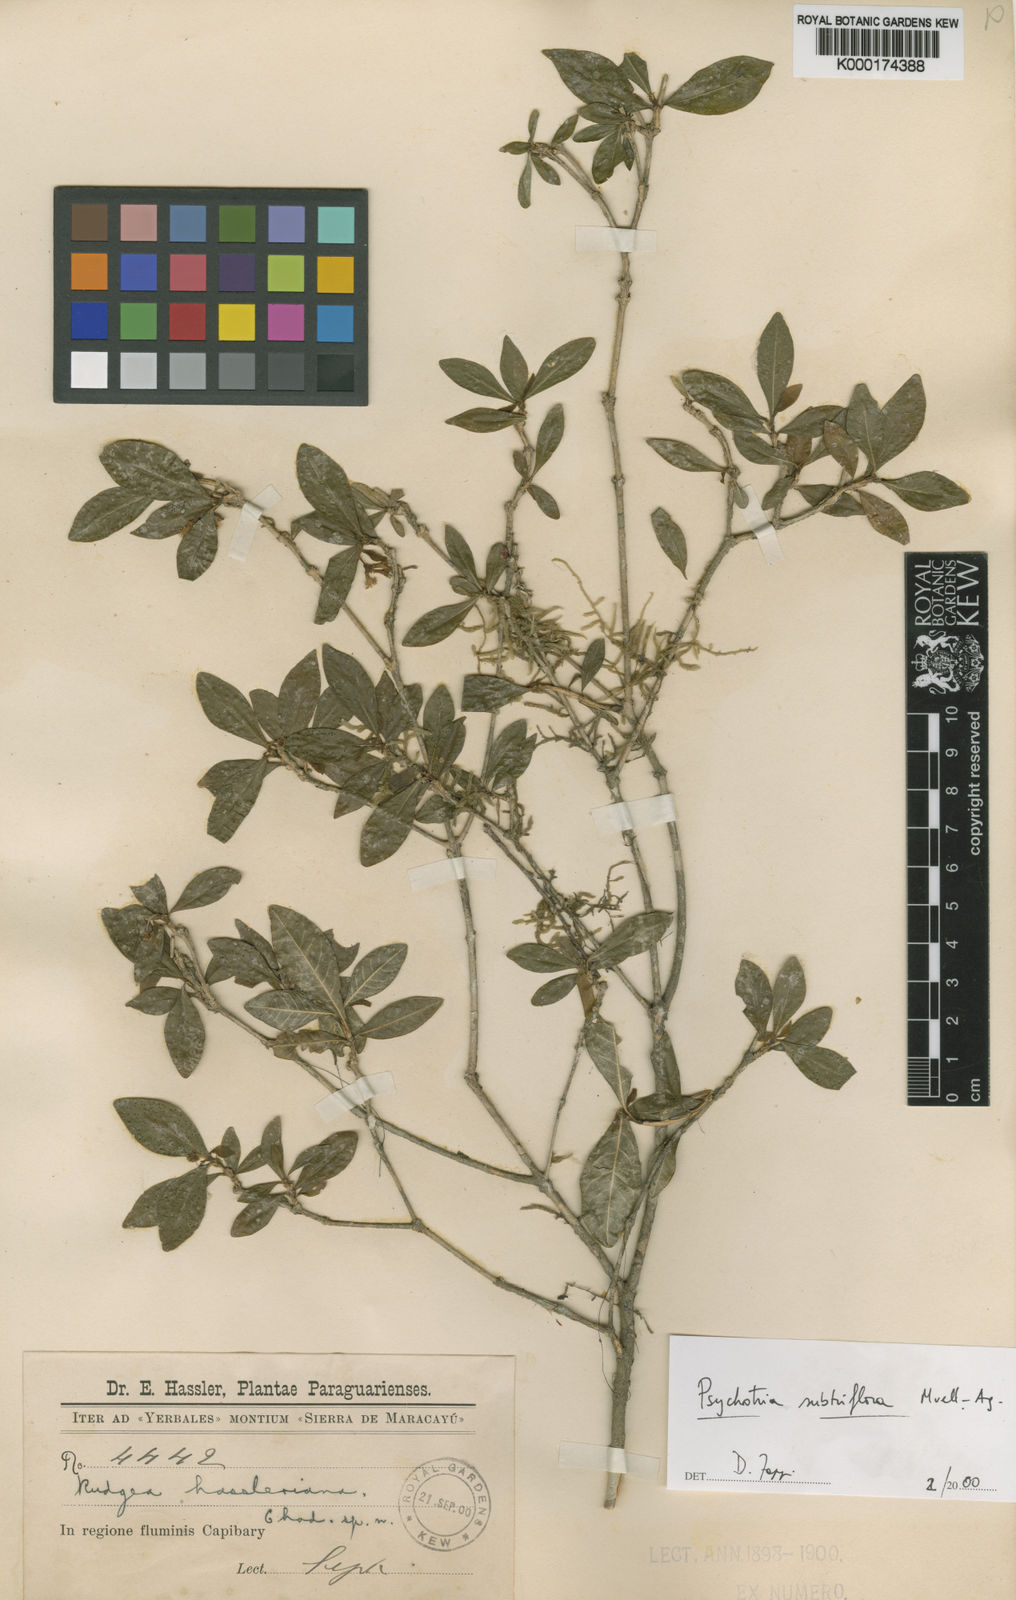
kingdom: Plantae
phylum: Tracheophyta
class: Magnoliopsida
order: Gentianales
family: Rubiaceae
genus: Eumachia
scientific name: Eumachia hassleriana
